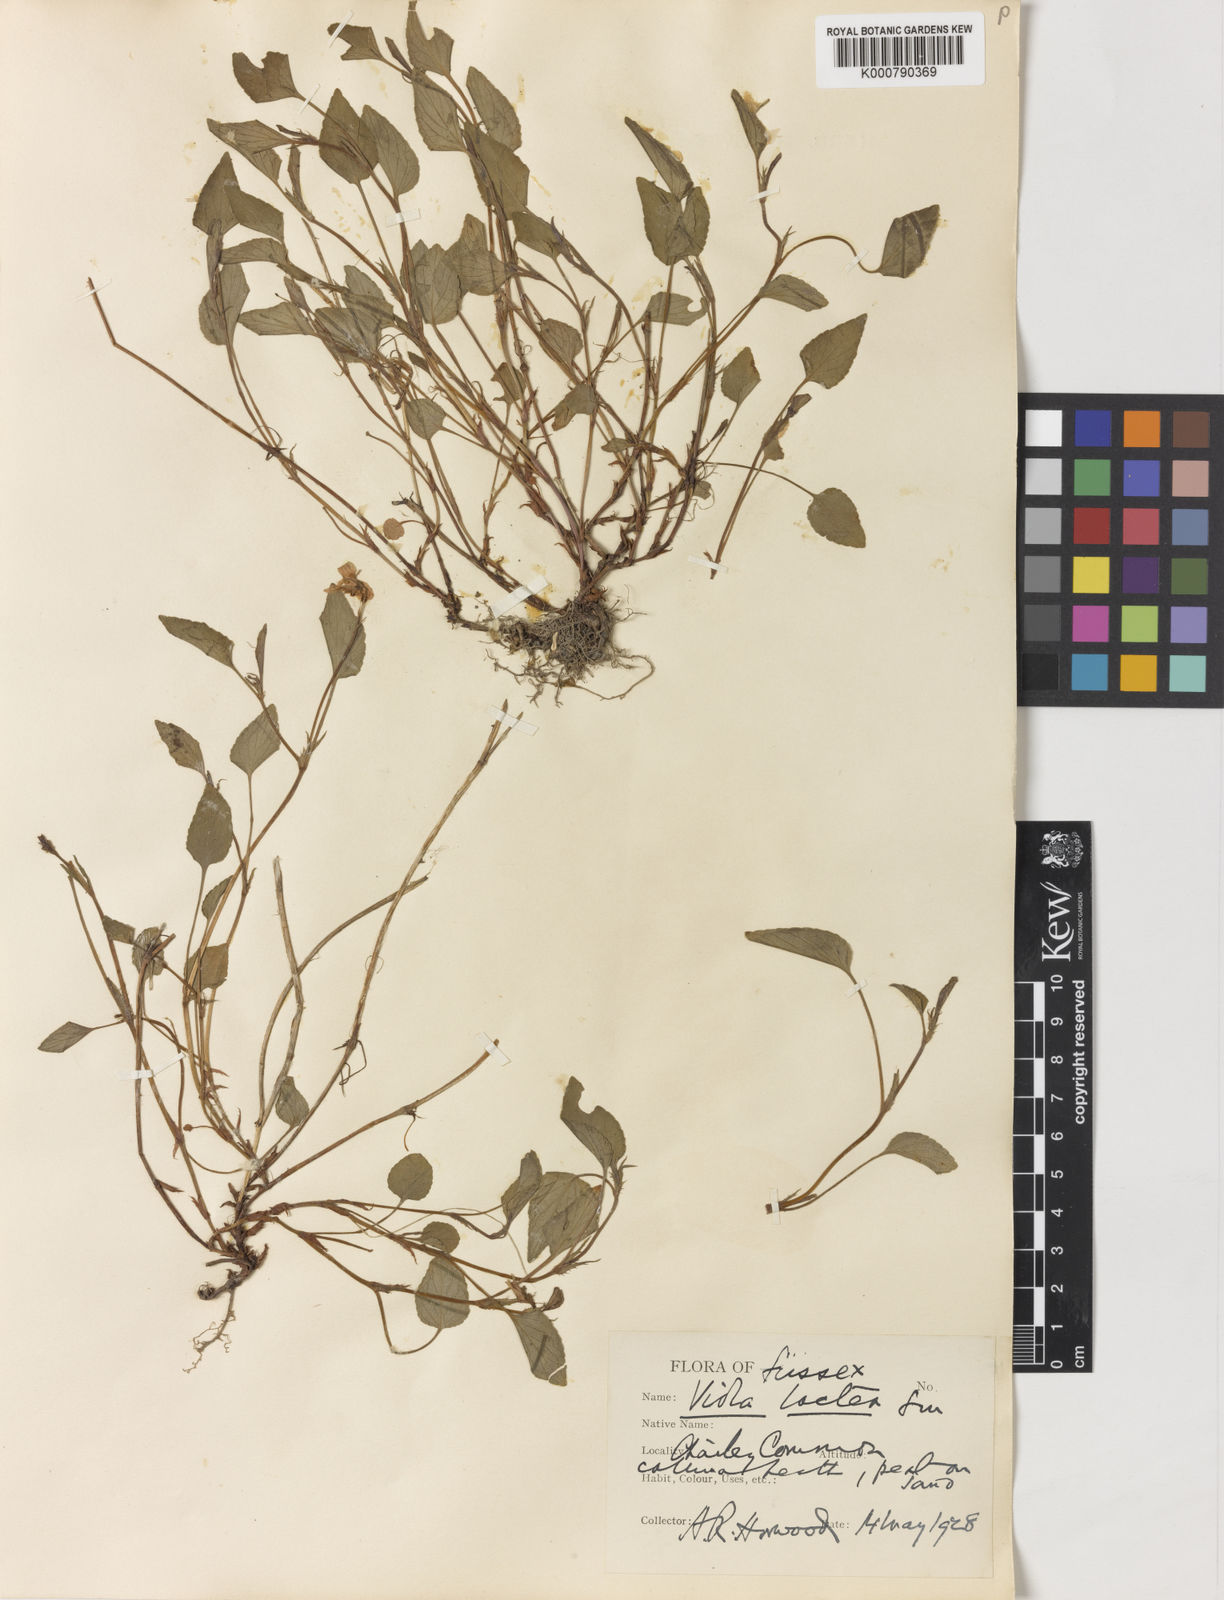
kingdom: Plantae
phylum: Tracheophyta
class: Magnoliopsida
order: Malpighiales
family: Violaceae
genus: Viola
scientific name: Viola lactea
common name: Pale dog-violet
